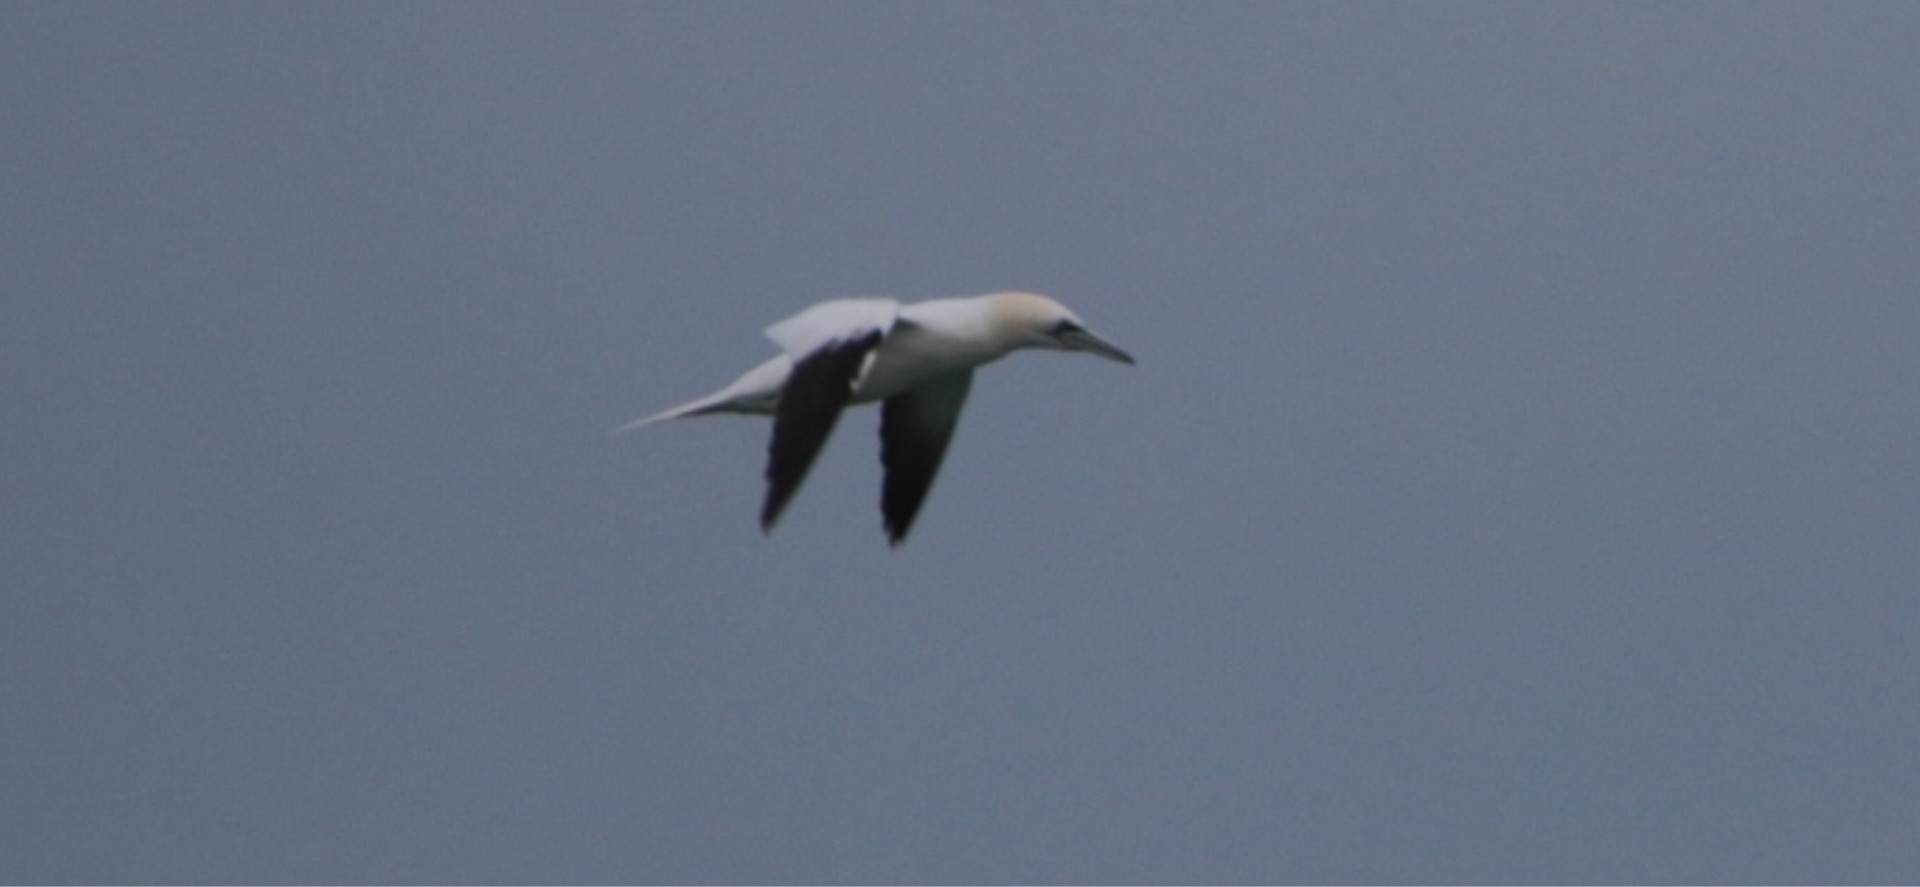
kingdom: Animalia
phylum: Chordata
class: Aves
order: Suliformes
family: Sulidae
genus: Morus
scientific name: Morus bassanus
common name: Sule
